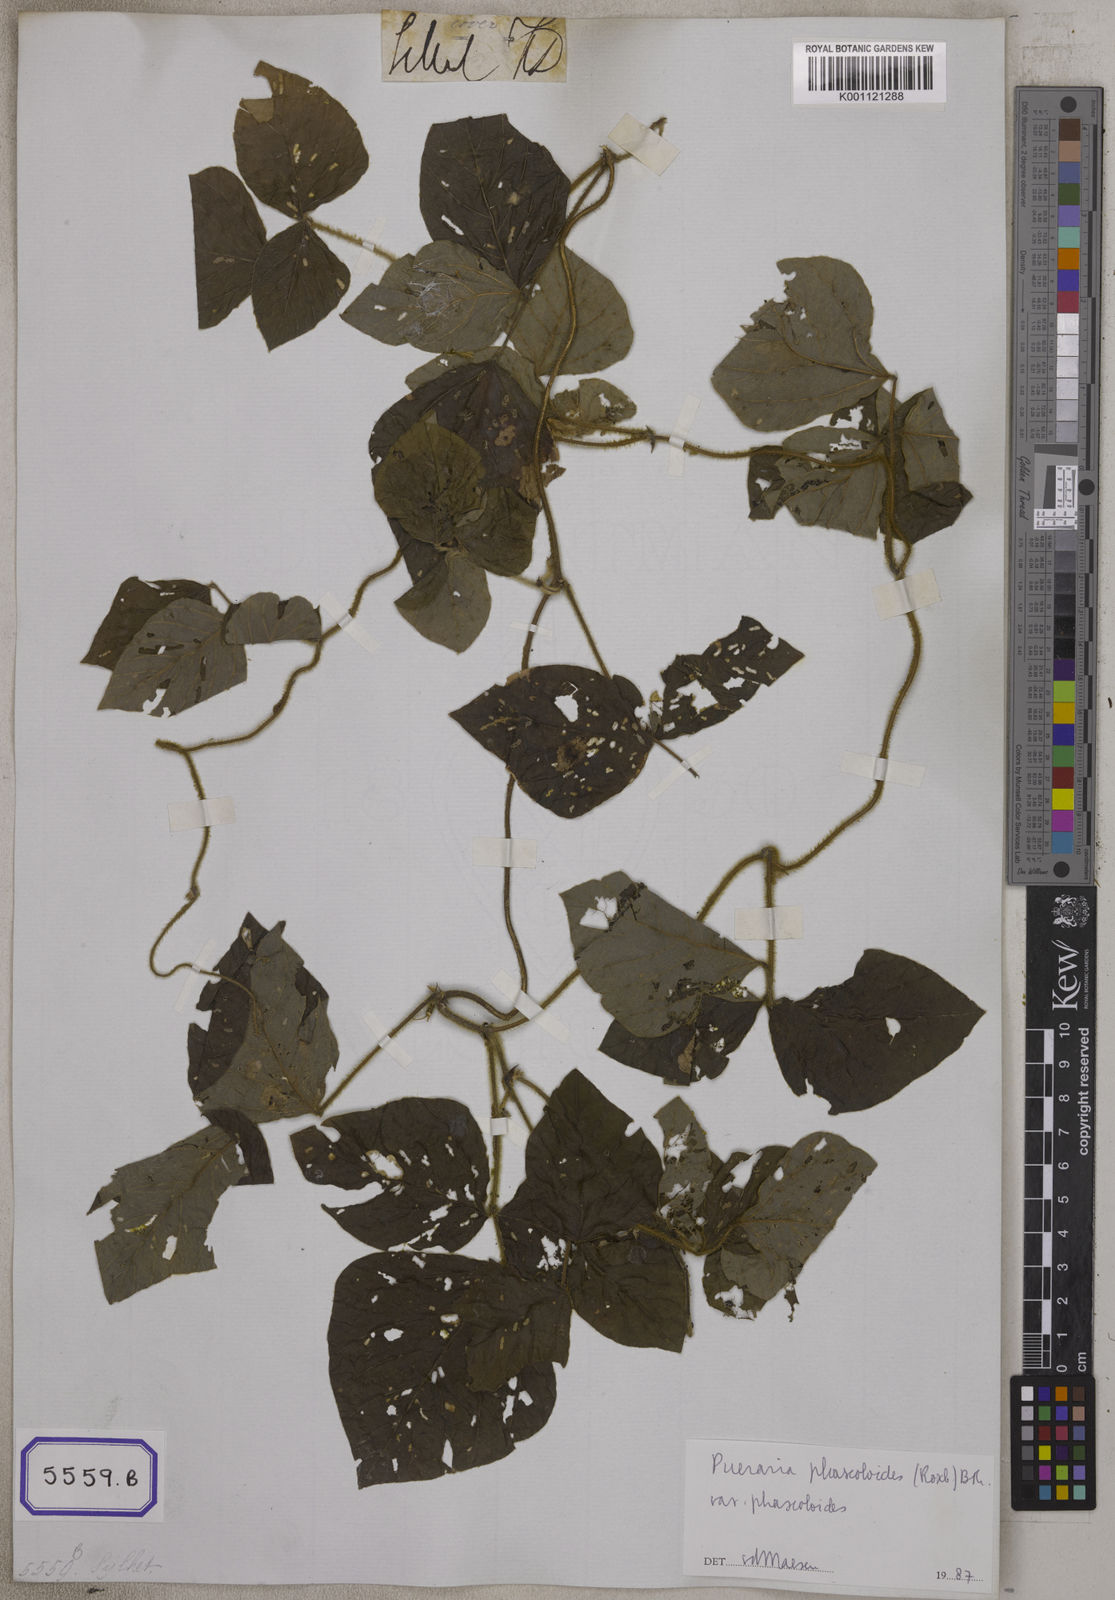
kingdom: Plantae
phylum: Tracheophyta
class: Magnoliopsida
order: Fabales
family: Fabaceae
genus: Neustanthus
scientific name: Neustanthus phaseoloides
